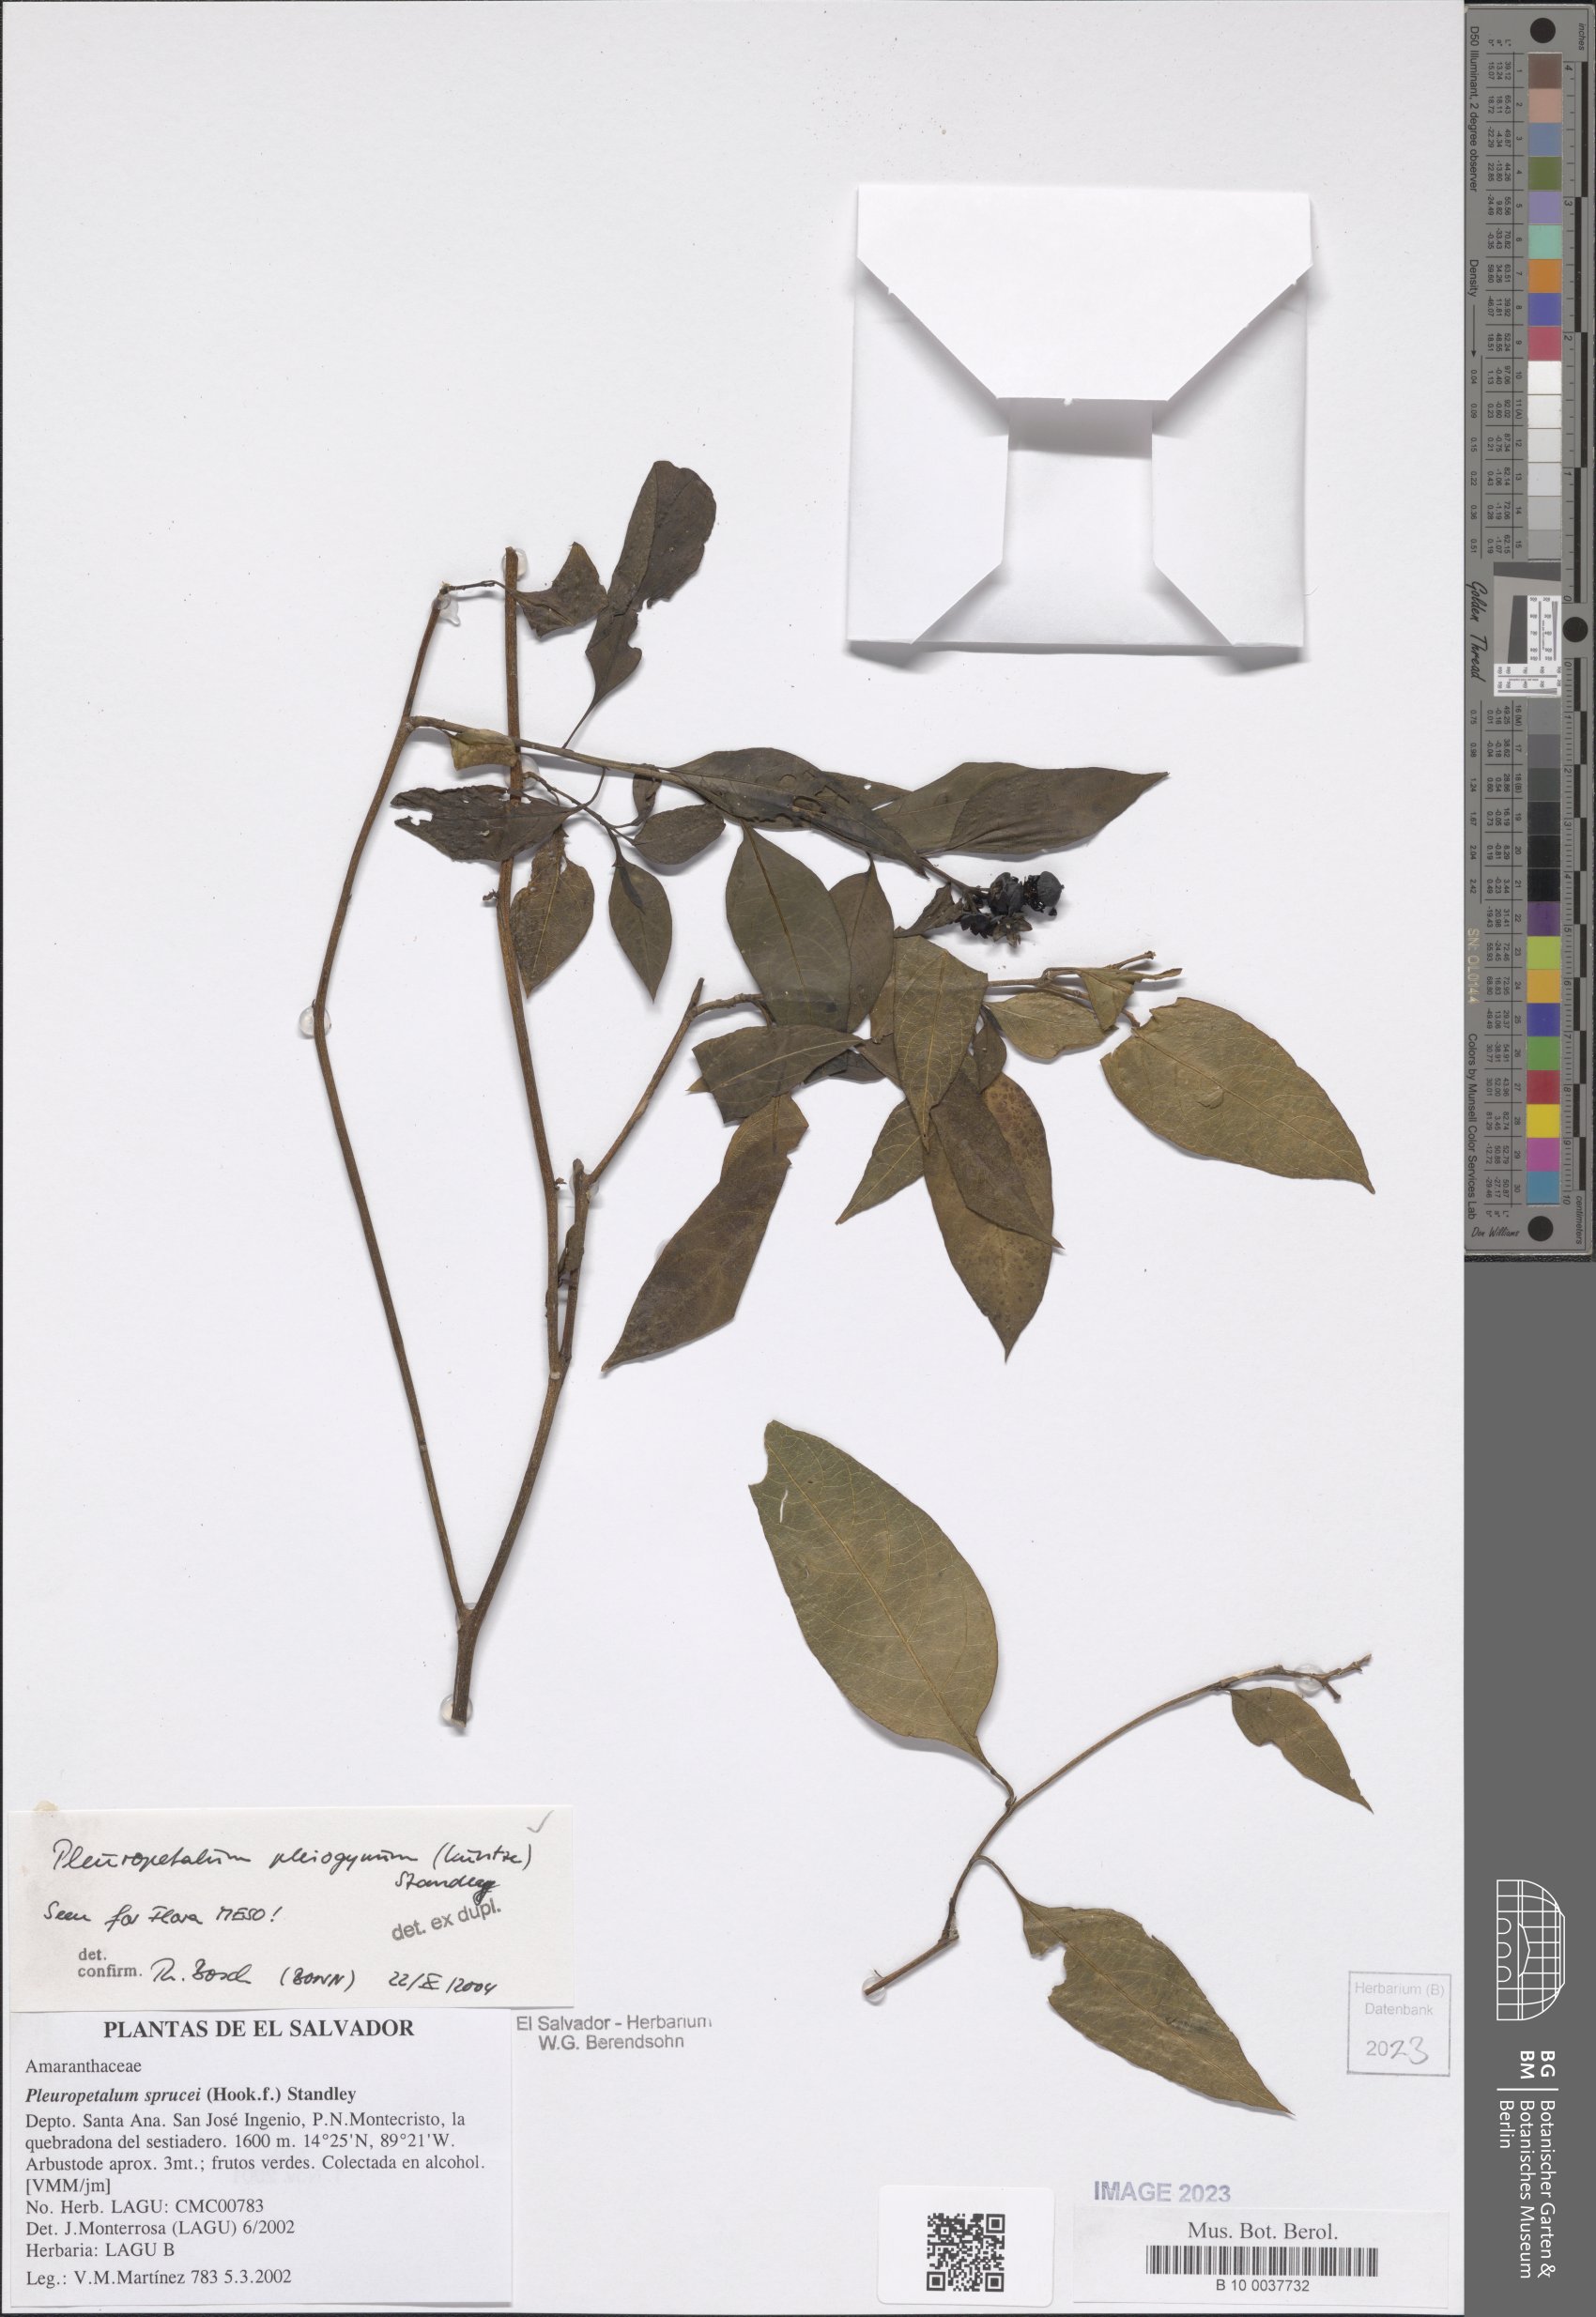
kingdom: Plantae
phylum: Tracheophyta
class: Magnoliopsida
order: Caryophyllales
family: Amaranthaceae
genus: Pleuropetalum
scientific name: Pleuropetalum pleiogynum
